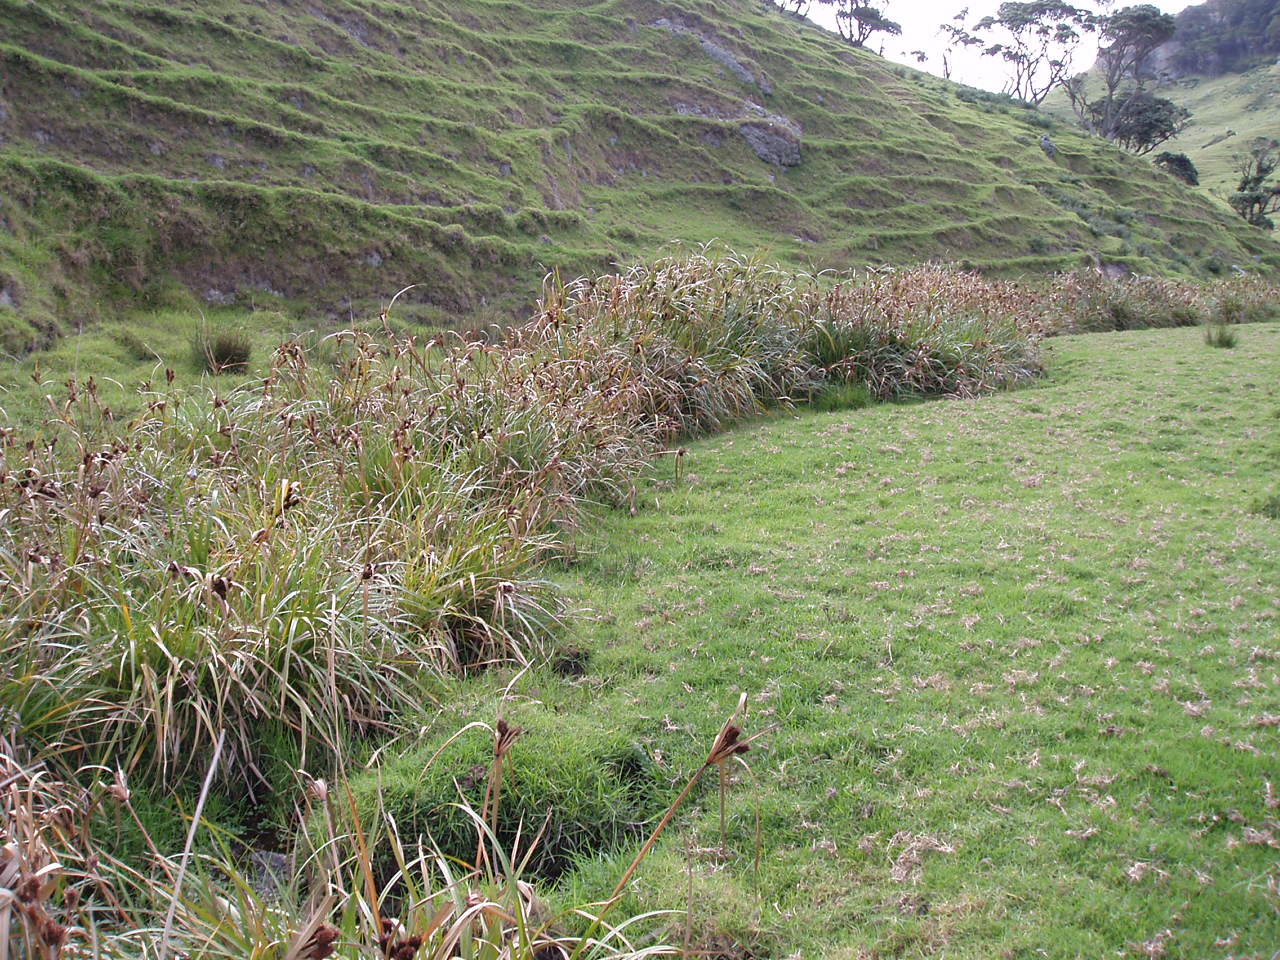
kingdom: Plantae
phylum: Tracheophyta
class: Magnoliopsida
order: Caryophyllales
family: Polygonaceae
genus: Rumex
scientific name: Rumex pulcher
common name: Fiddle dock
